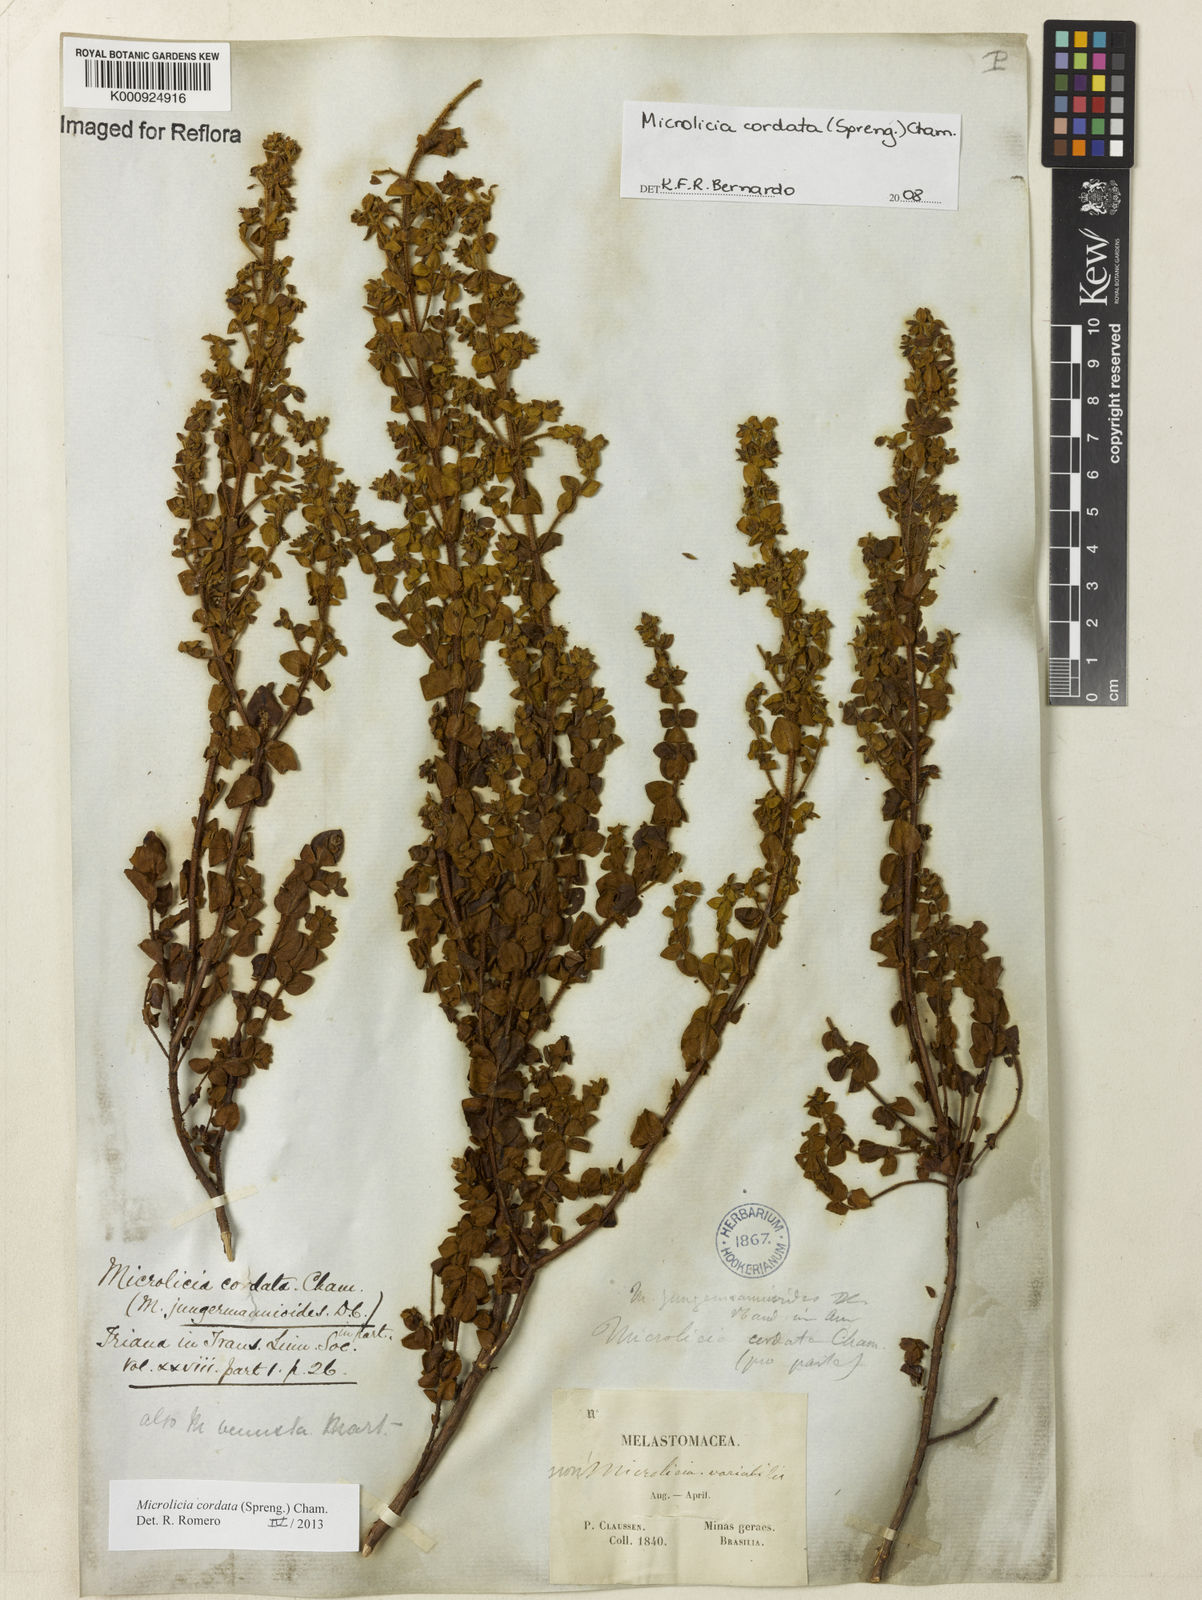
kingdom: Plantae
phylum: Tracheophyta
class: Magnoliopsida
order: Myrtales
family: Melastomataceae
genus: Microlicia
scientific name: Microlicia cordata
